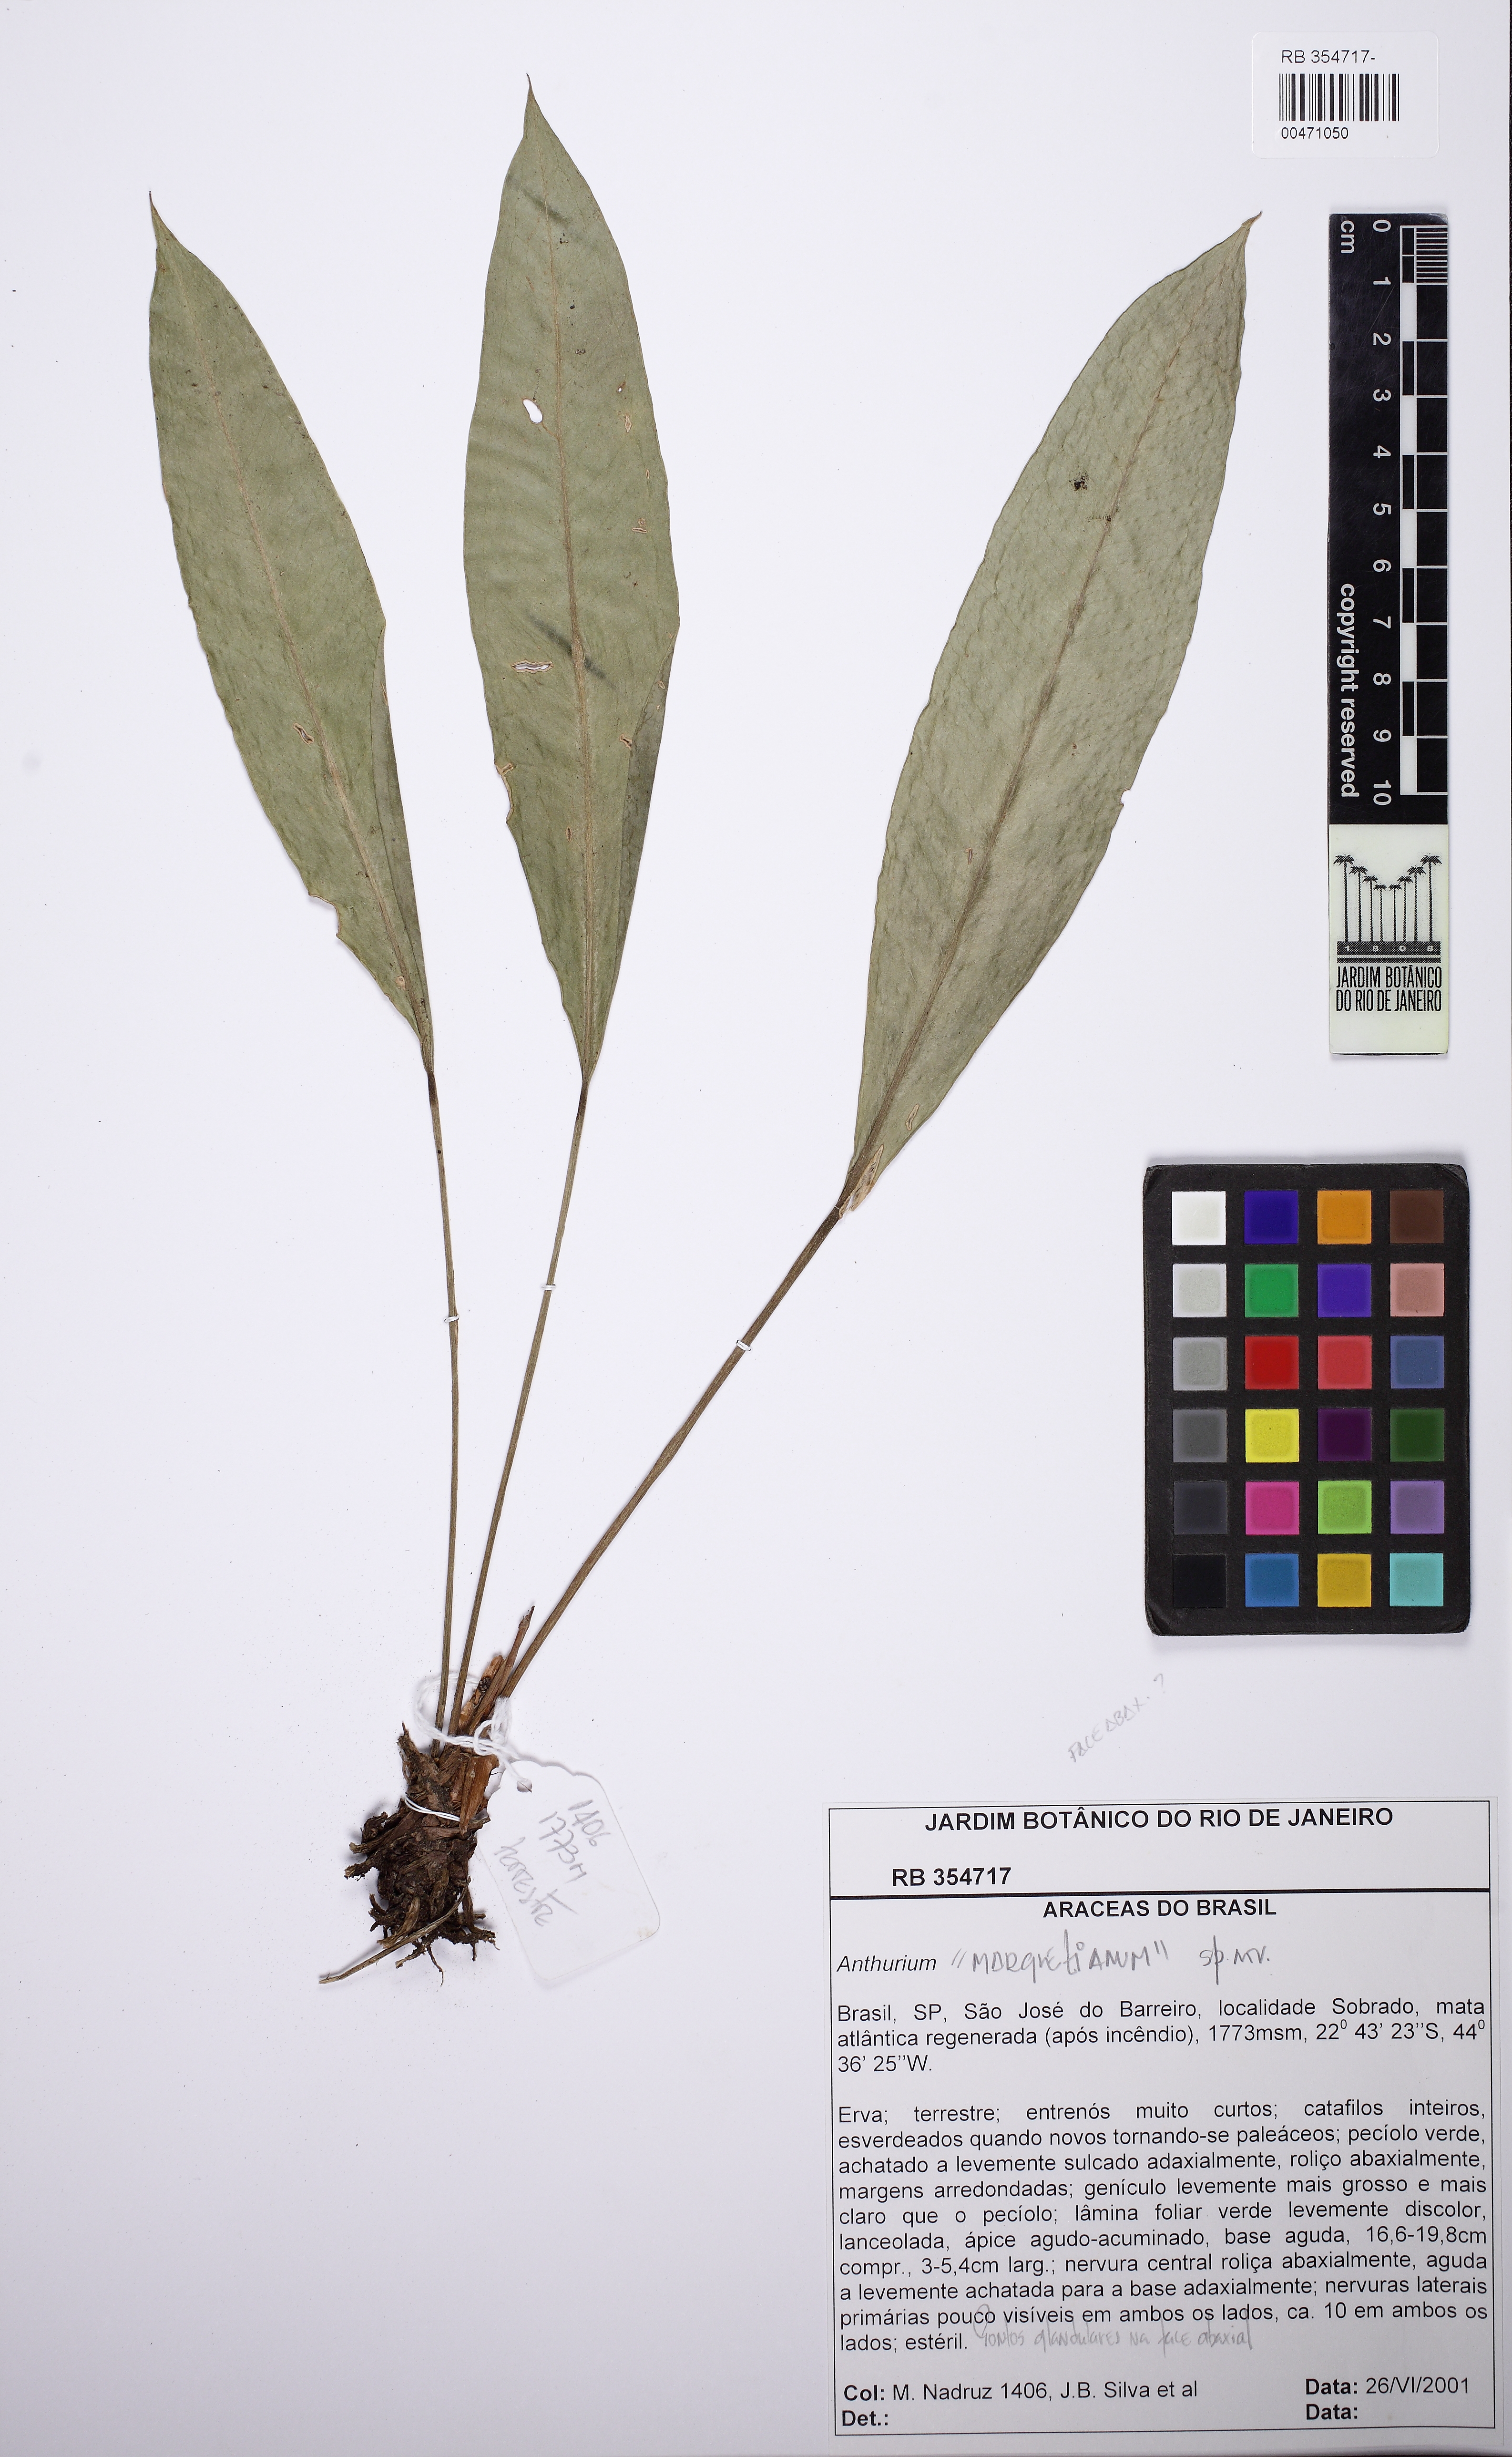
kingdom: Plantae
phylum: Tracheophyta
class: Liliopsida
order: Alismatales
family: Araceae
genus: Anthurium
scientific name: Anthurium
